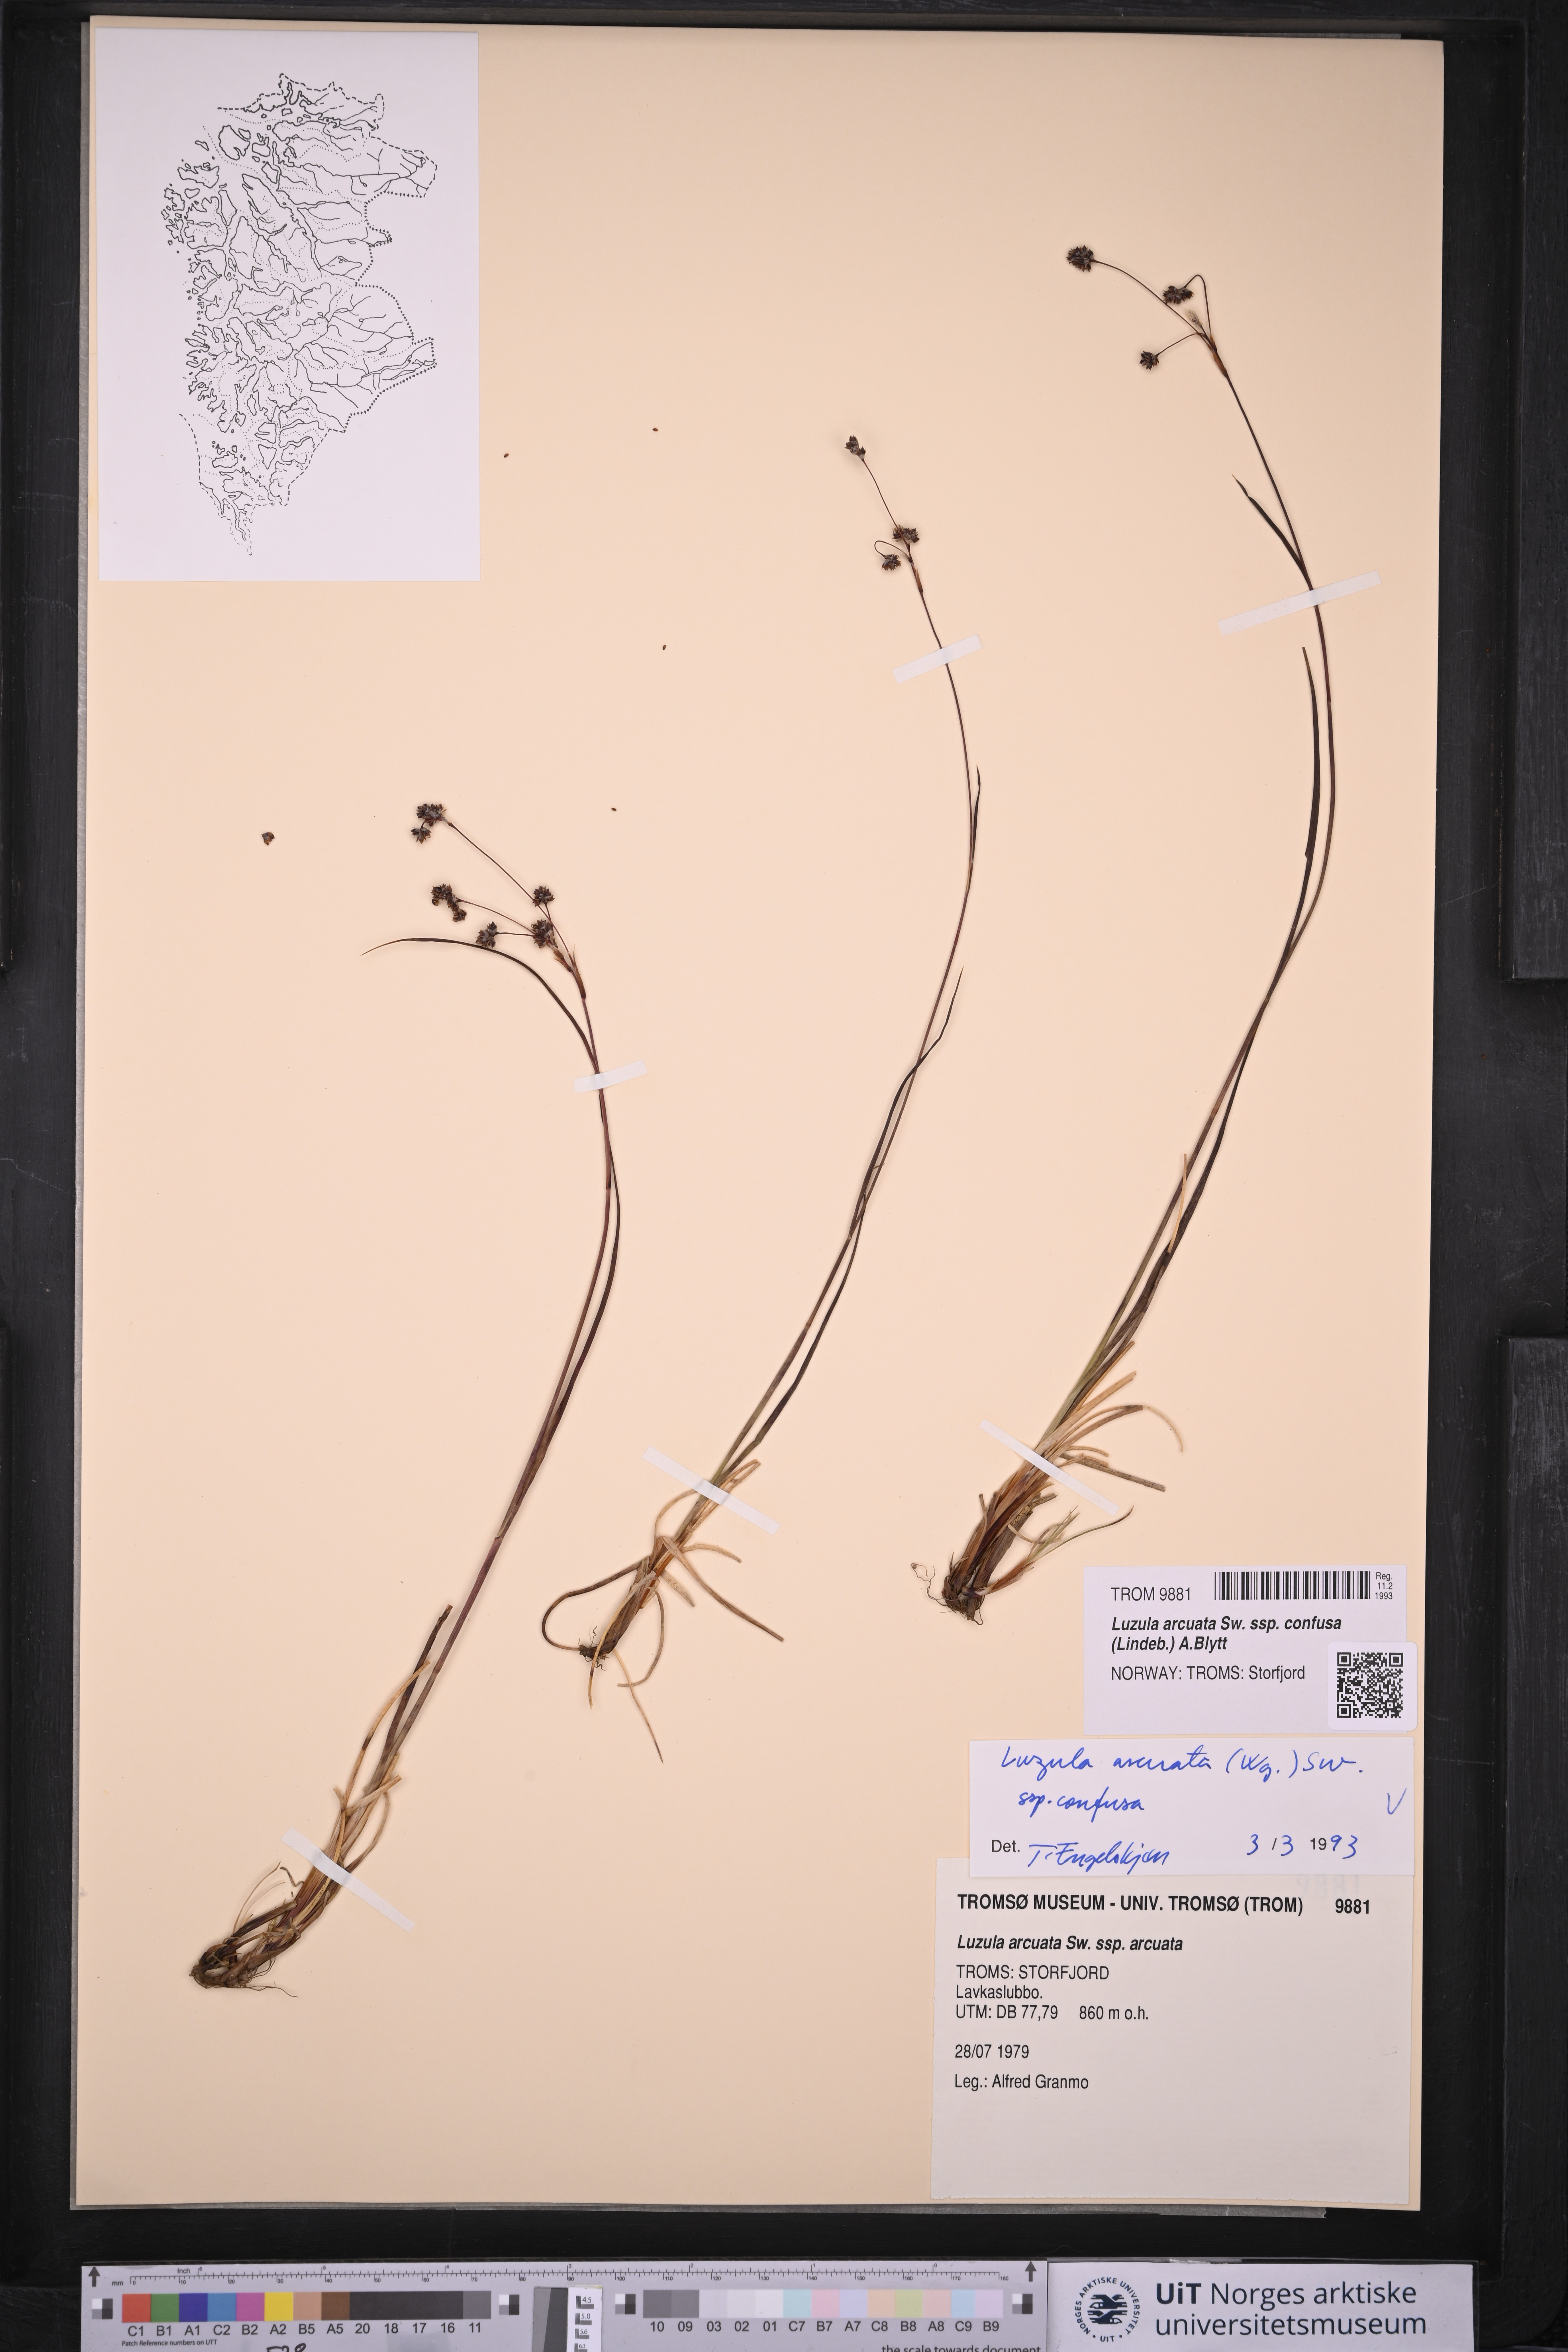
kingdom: Plantae
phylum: Tracheophyta
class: Liliopsida
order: Poales
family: Juncaceae
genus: Luzula
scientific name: Luzula confusa
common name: Northern wood rush
